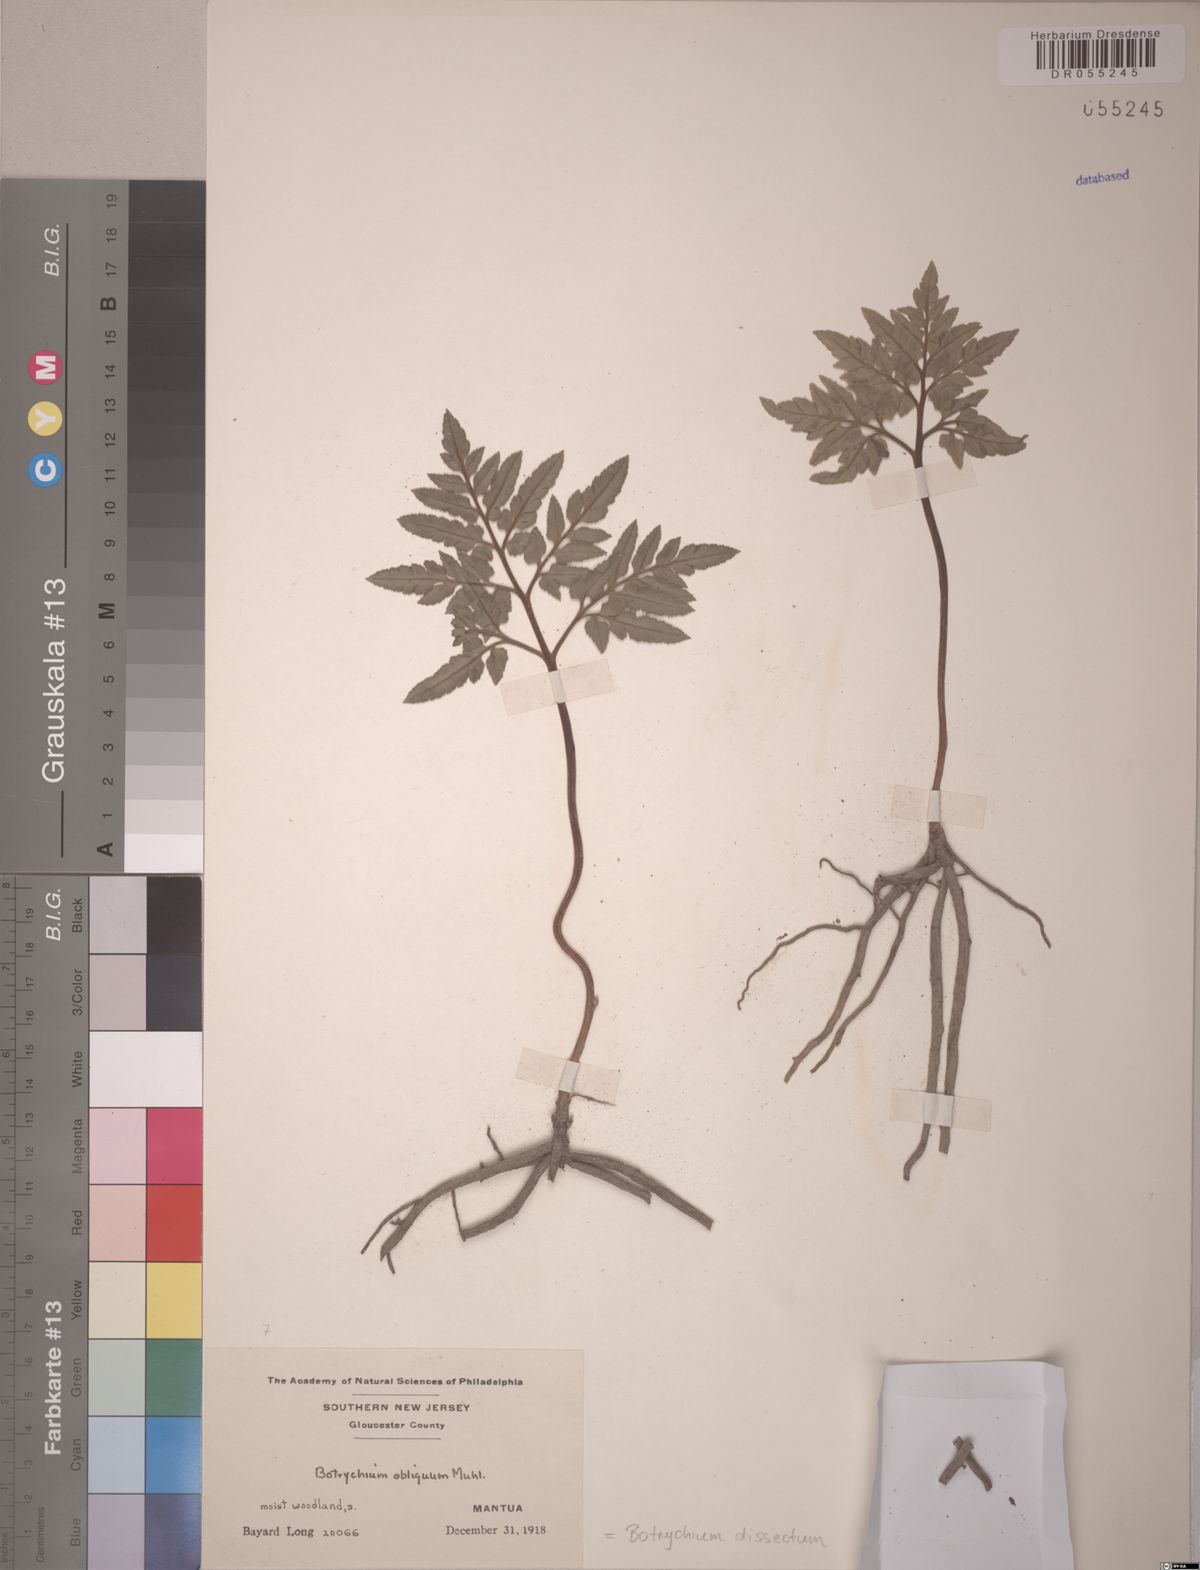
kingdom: Plantae
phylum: Tracheophyta
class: Polypodiopsida
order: Ophioglossales
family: Ophioglossaceae
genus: Sceptridium
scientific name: Sceptridium dissectum
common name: Cut-leaved grapefern
